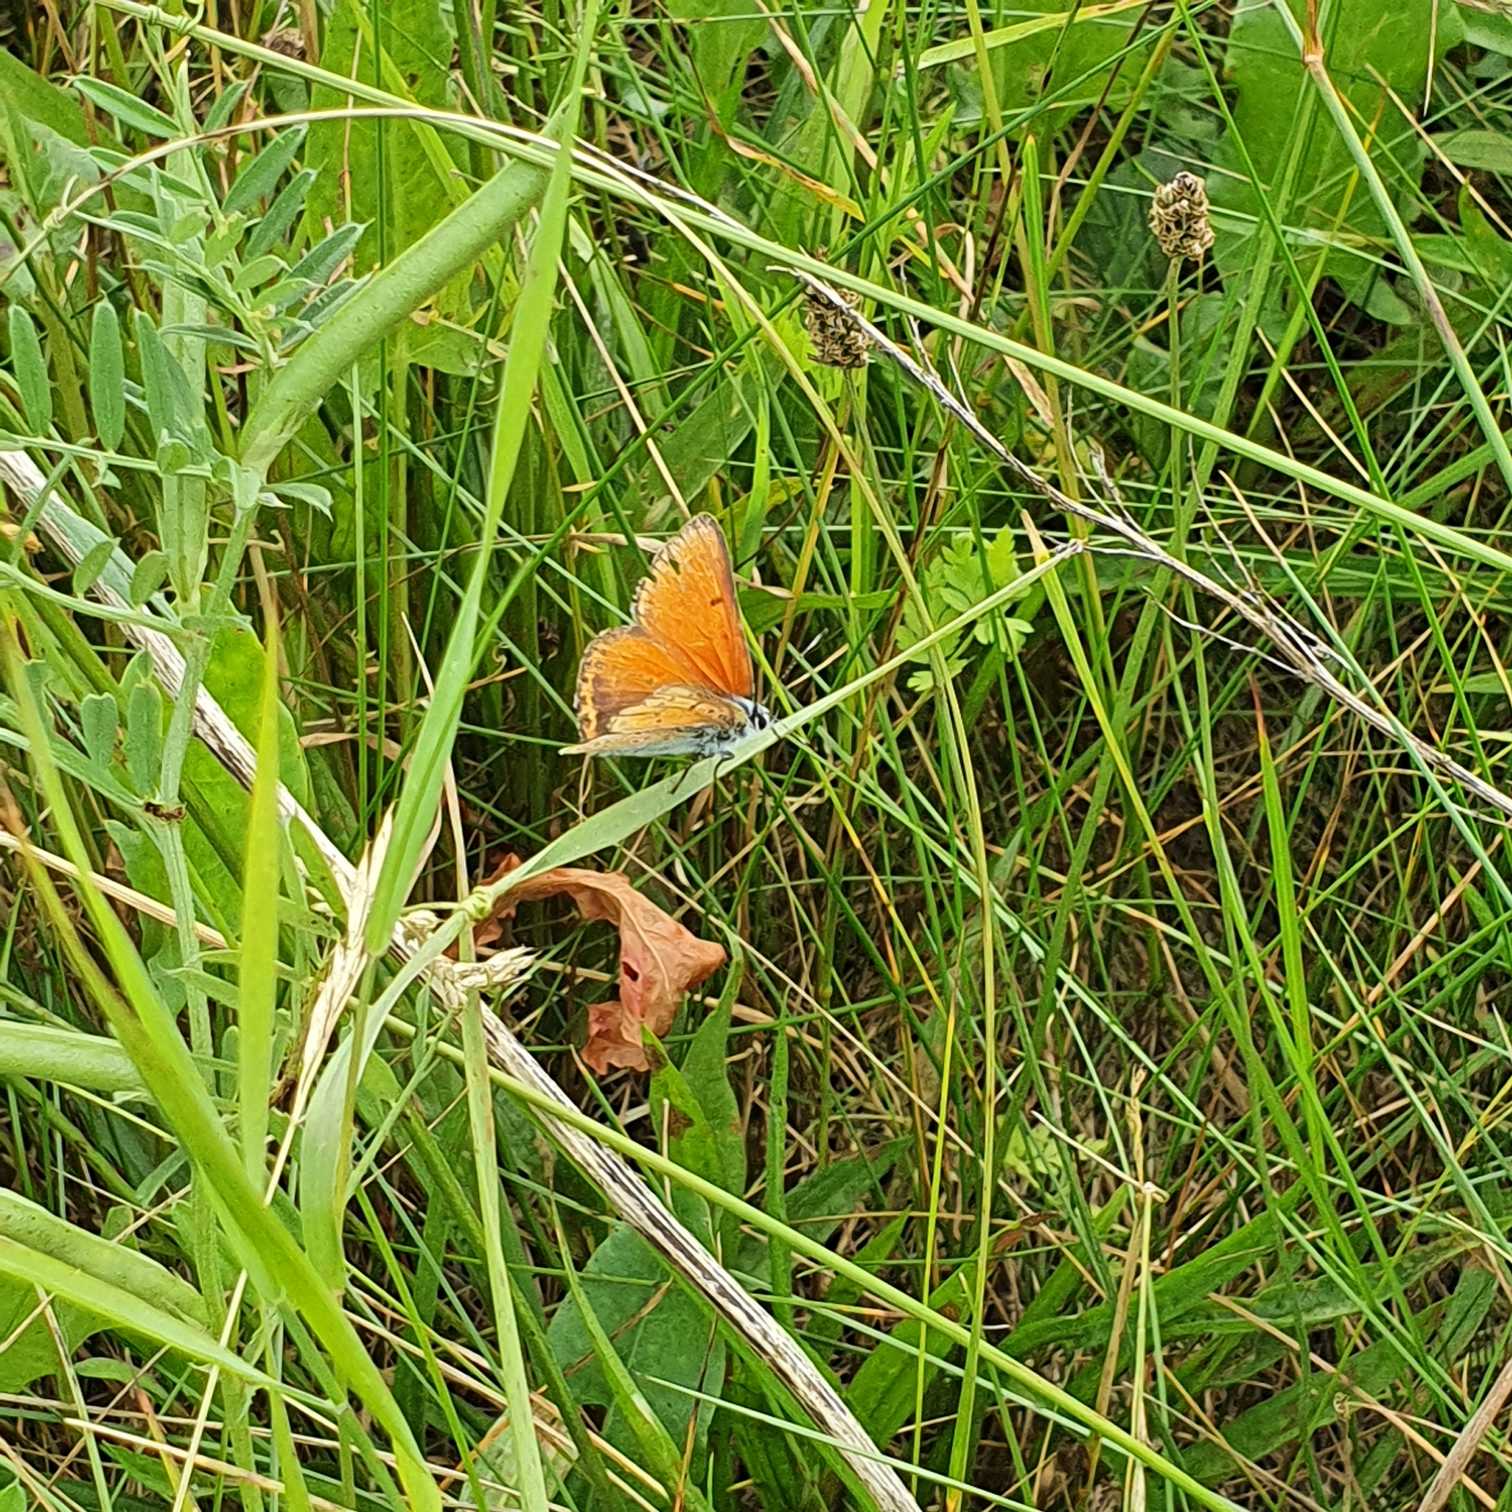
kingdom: Animalia
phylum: Arthropoda
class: Insecta
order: Lepidoptera
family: Lycaenidae
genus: Palaeochrysophanus
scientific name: Palaeochrysophanus hippothoe
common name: Violetrandet ildfugl
